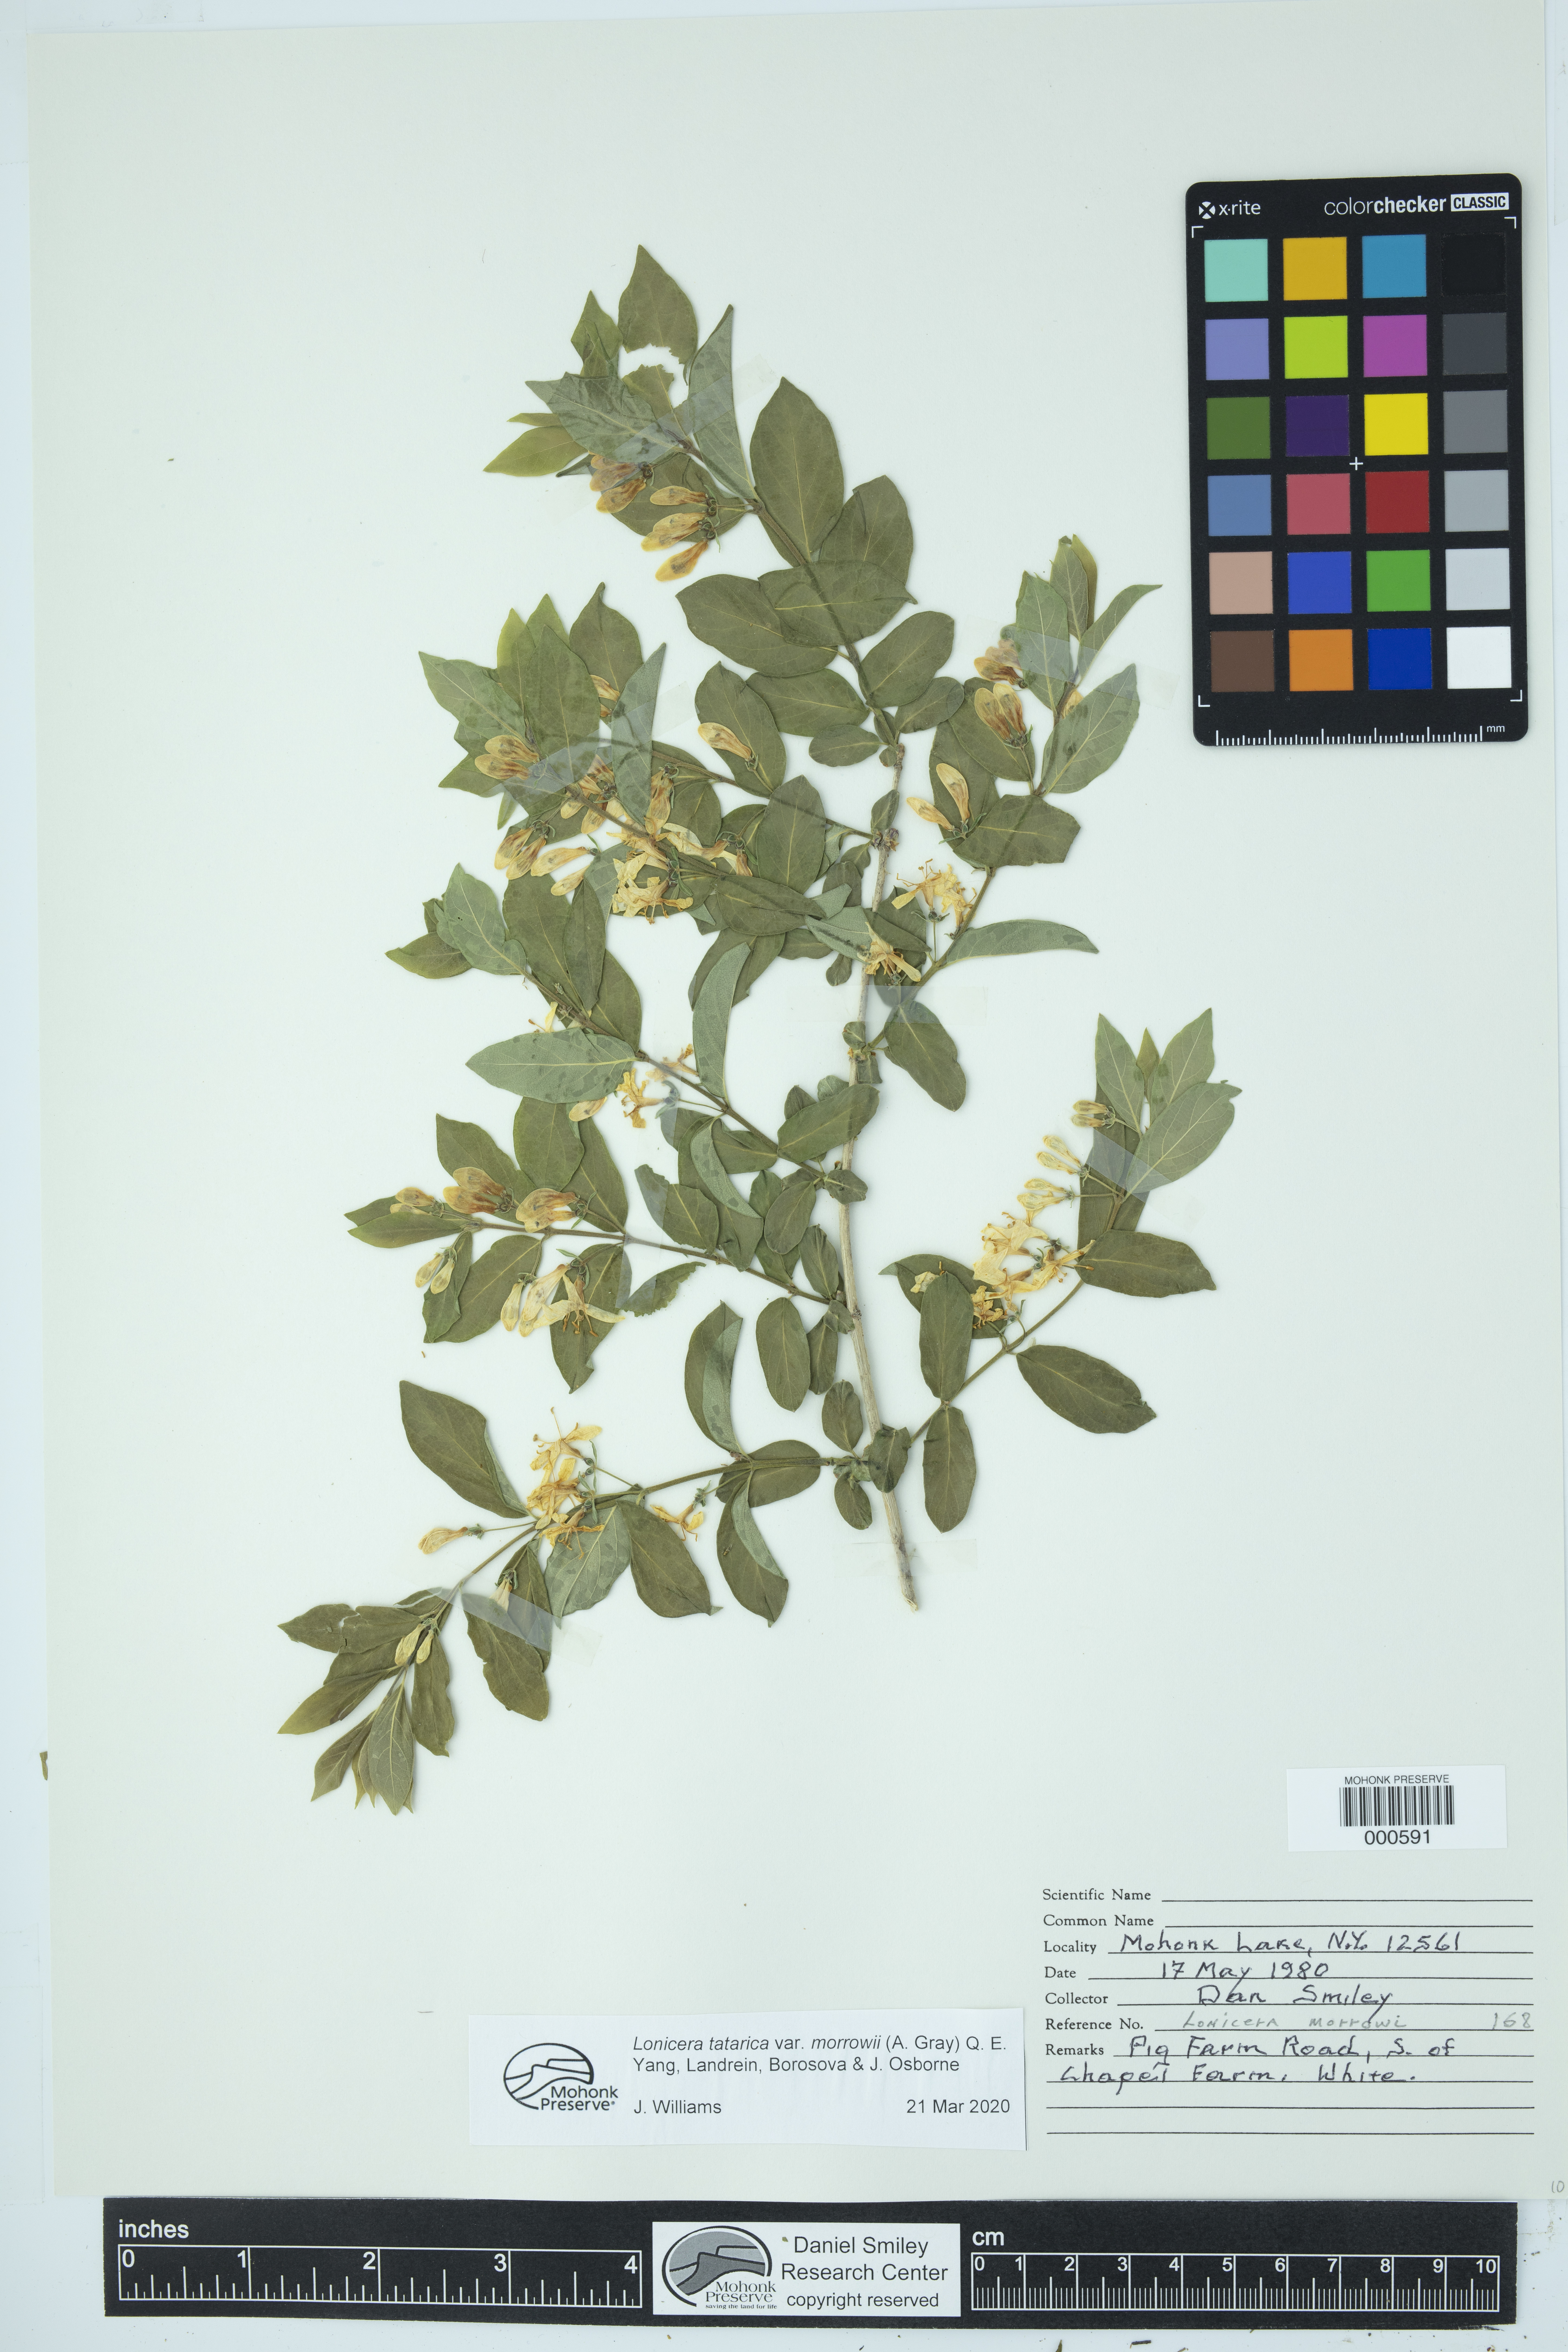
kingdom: Plantae
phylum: Tracheophyta
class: Magnoliopsida
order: Dipsacales
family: Caprifoliaceae
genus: Lonicera
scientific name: Lonicera morrowii
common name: Morrow's honeysuckle
